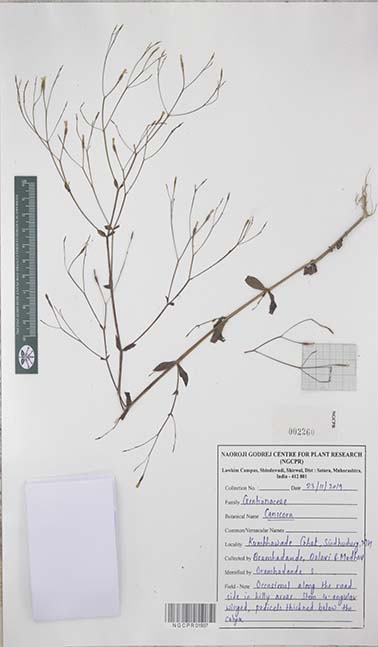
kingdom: Plantae
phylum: Tracheophyta
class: Magnoliopsida
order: Gentianales
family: Gentianaceae
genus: Canscora
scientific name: Canscora
